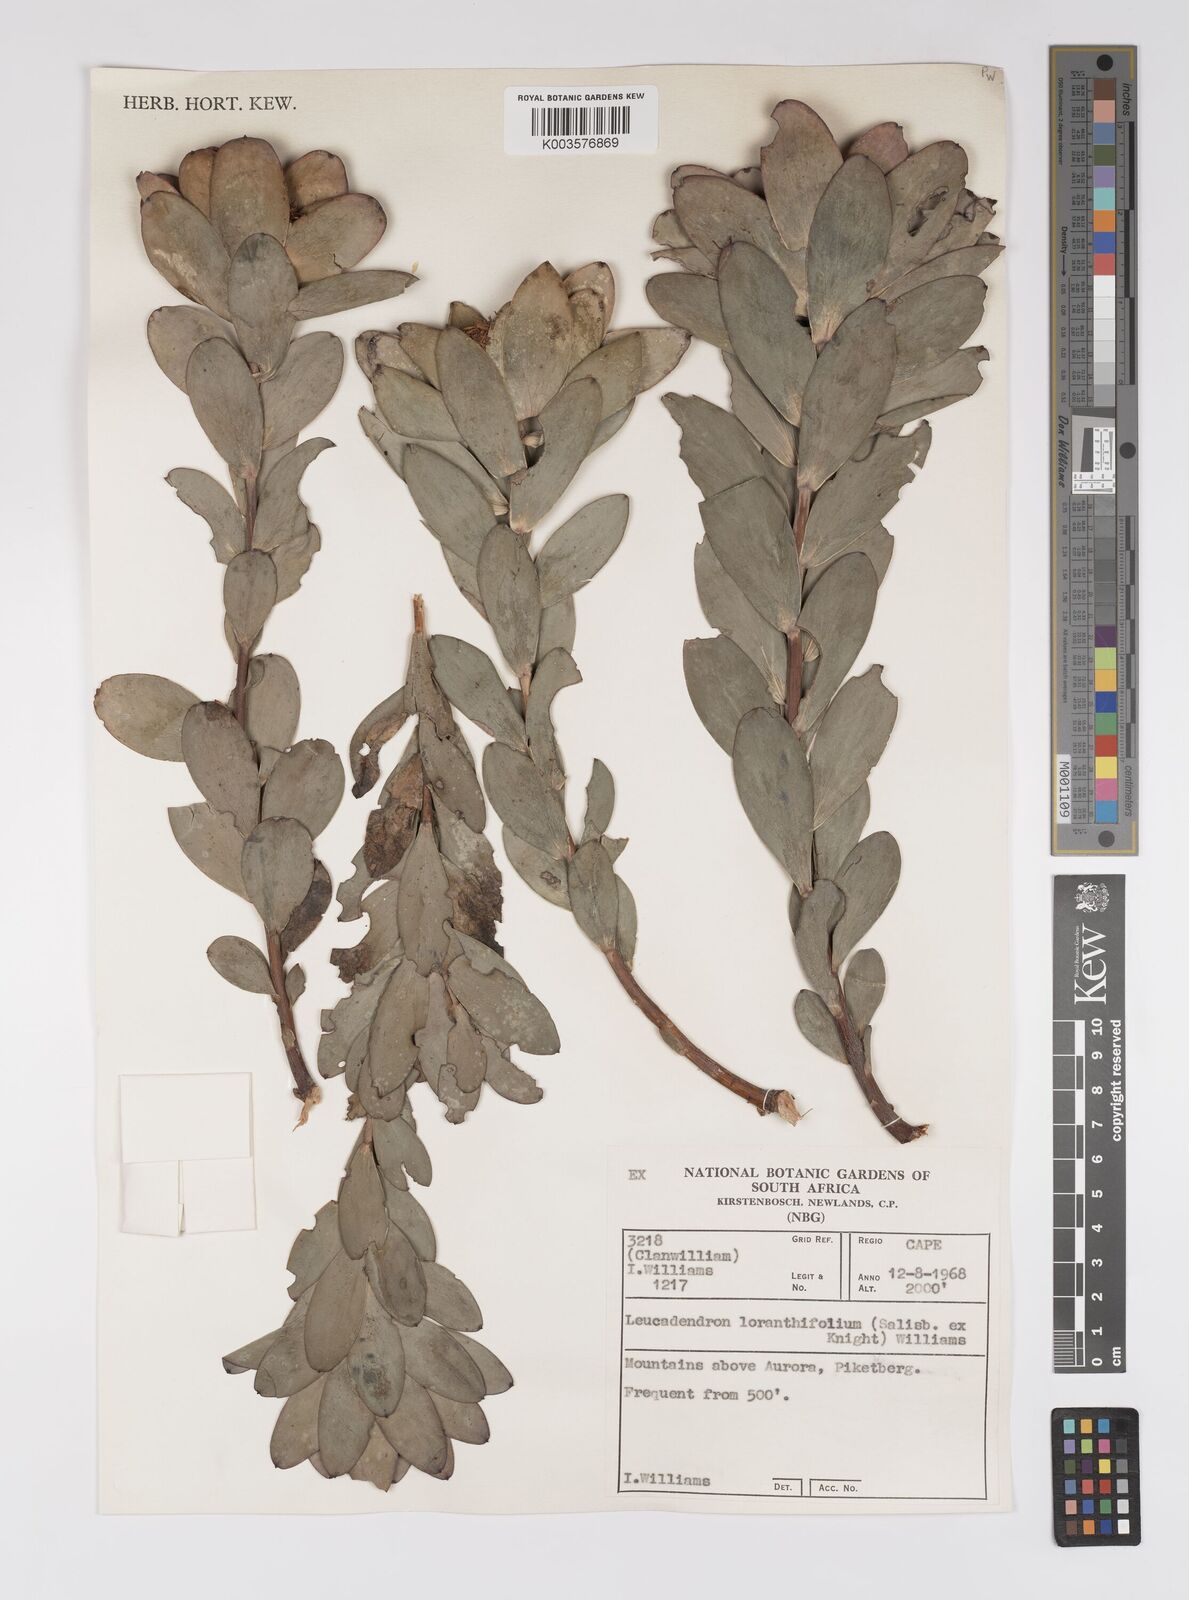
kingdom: Plantae
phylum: Tracheophyta
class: Magnoliopsida
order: Proteales
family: Proteaceae
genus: Leucadendron
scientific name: Leucadendron loranthifolium
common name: Green-flower sunbush
